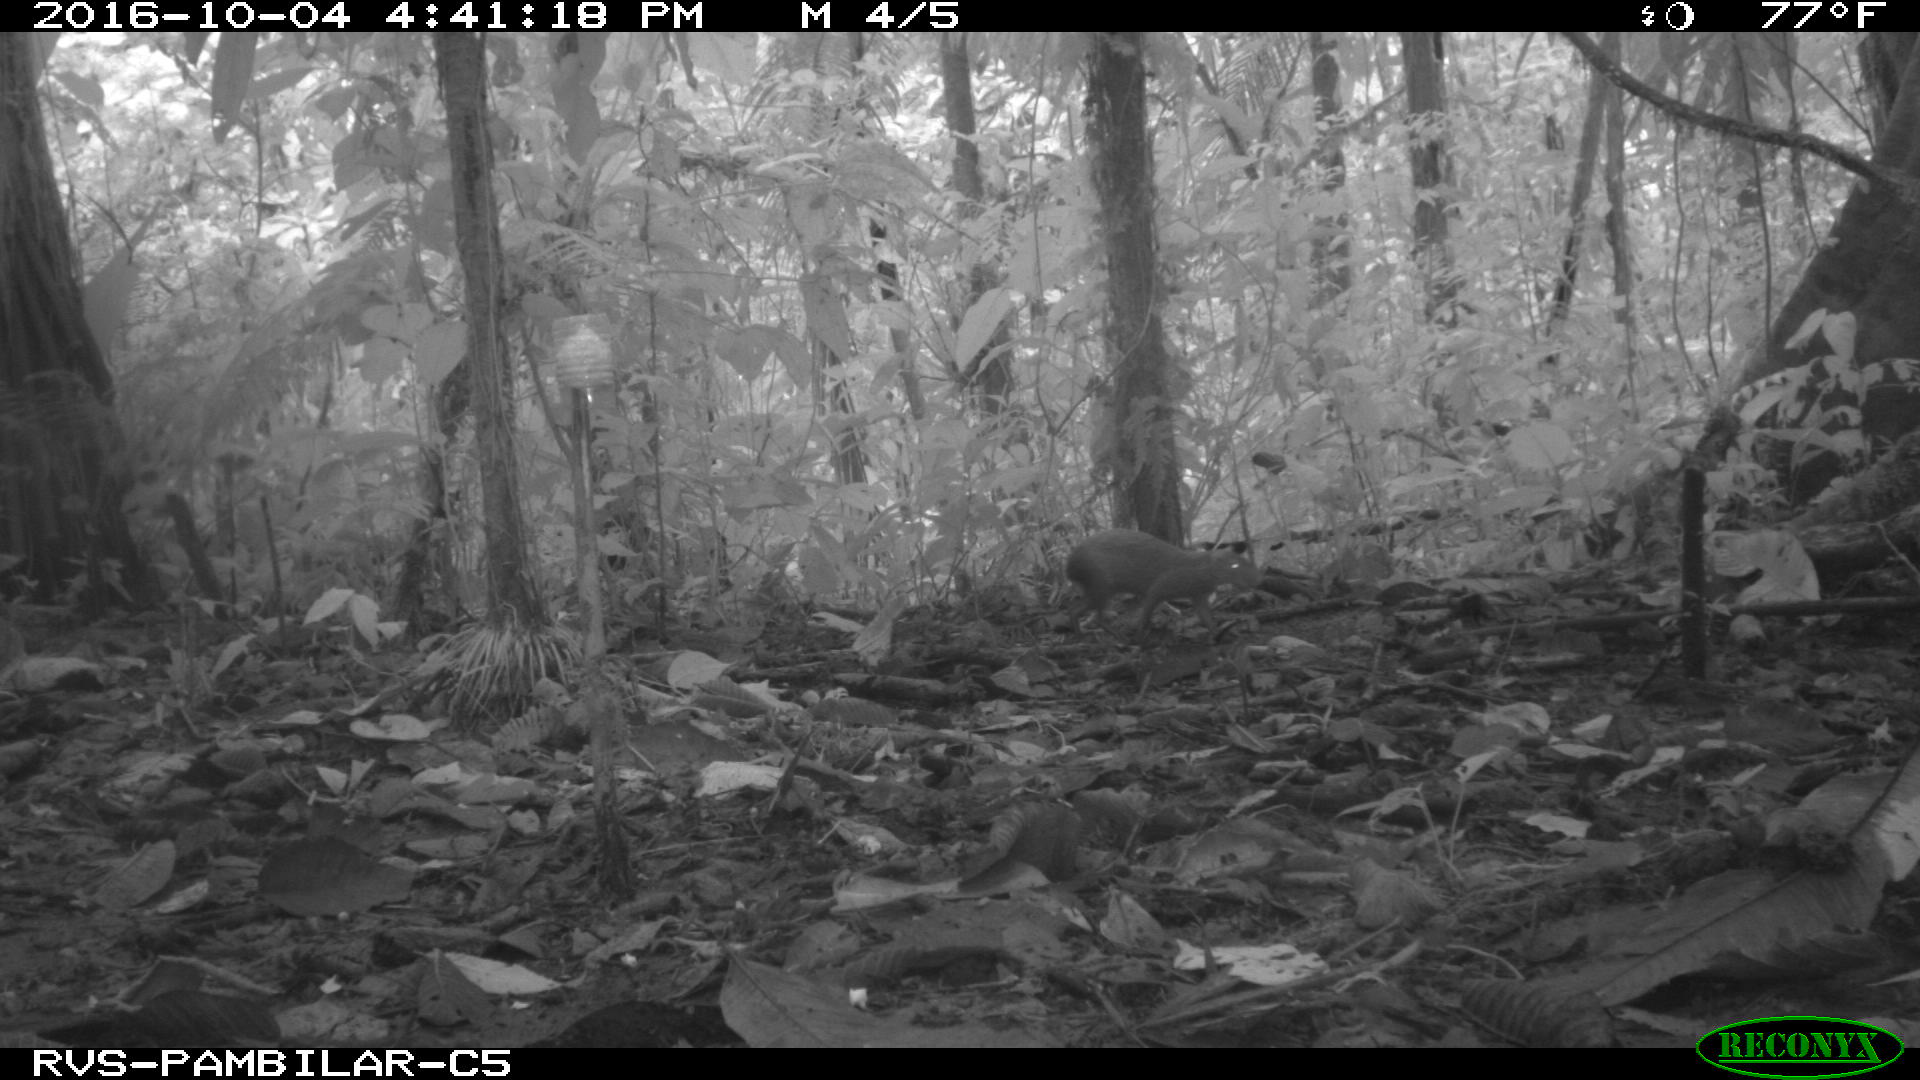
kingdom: Animalia
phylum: Chordata
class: Mammalia
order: Rodentia
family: Dasyproctidae
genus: Dasyprocta
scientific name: Dasyprocta punctata
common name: Central american agouti
